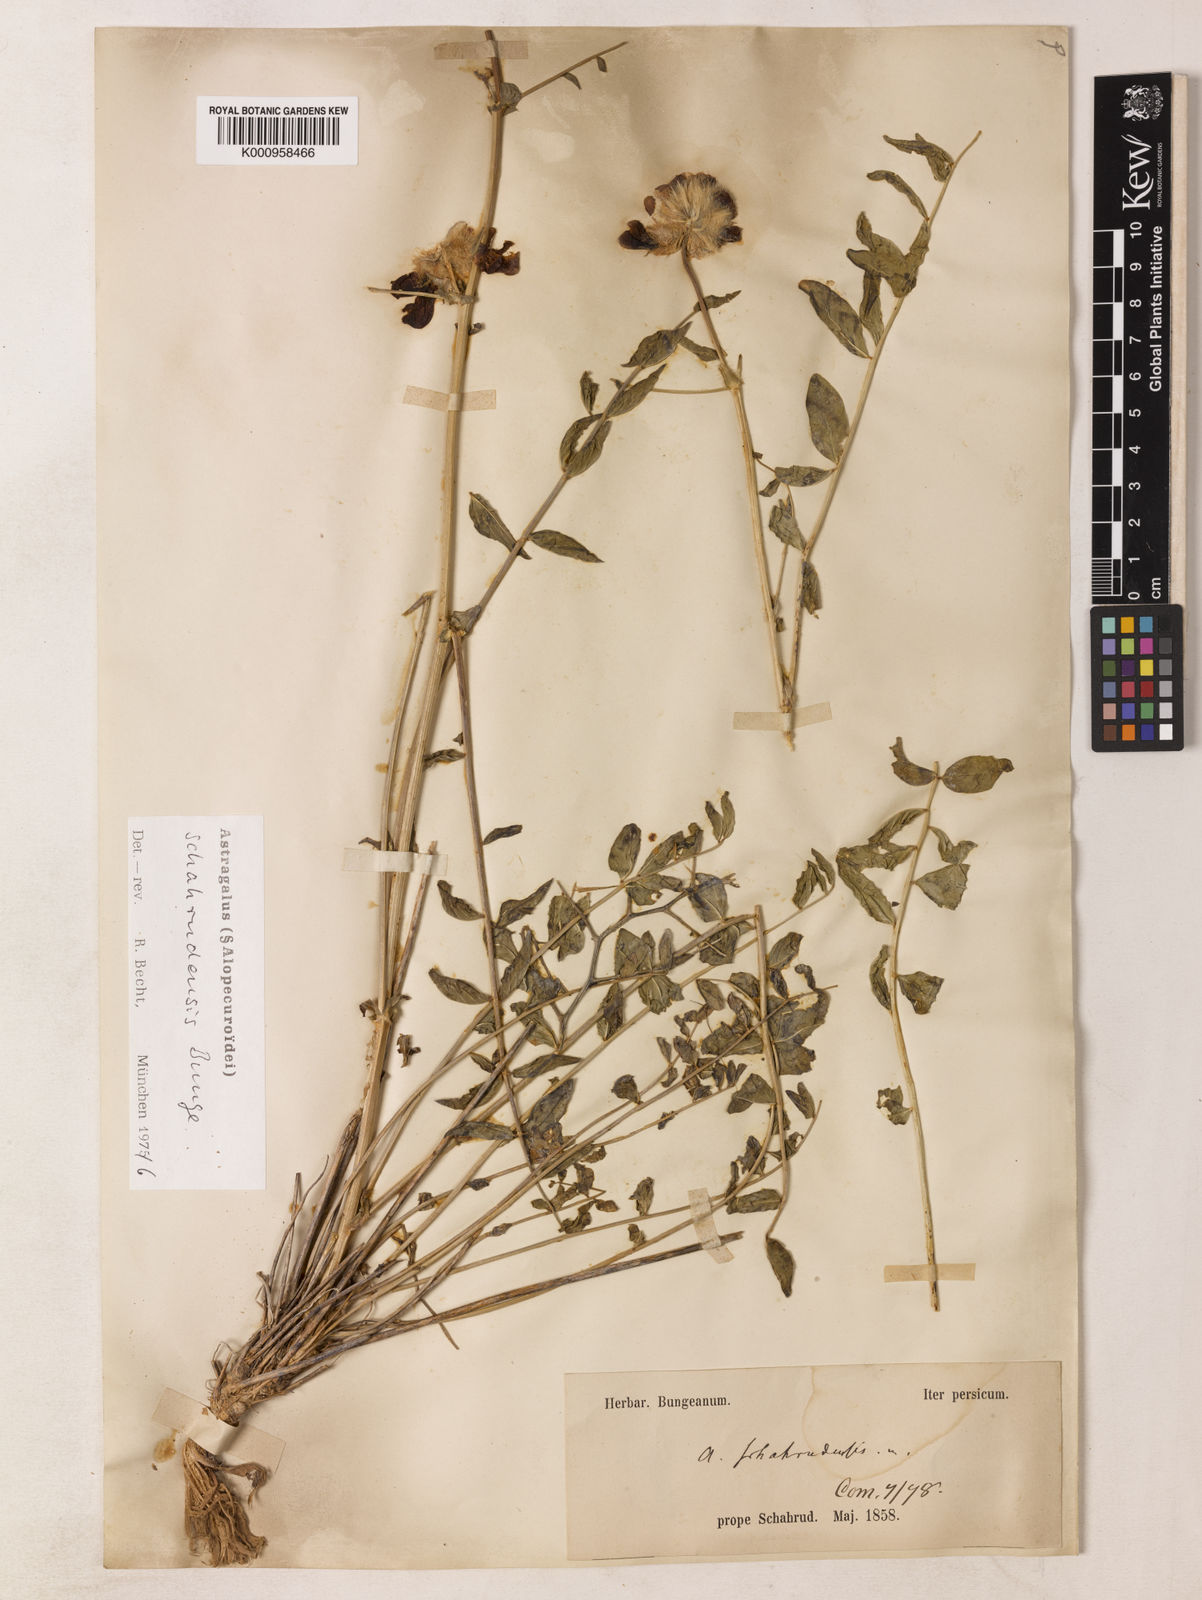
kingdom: Plantae
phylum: Tracheophyta
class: Magnoliopsida
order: Fabales
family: Fabaceae
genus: Astragalus
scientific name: Astragalus
